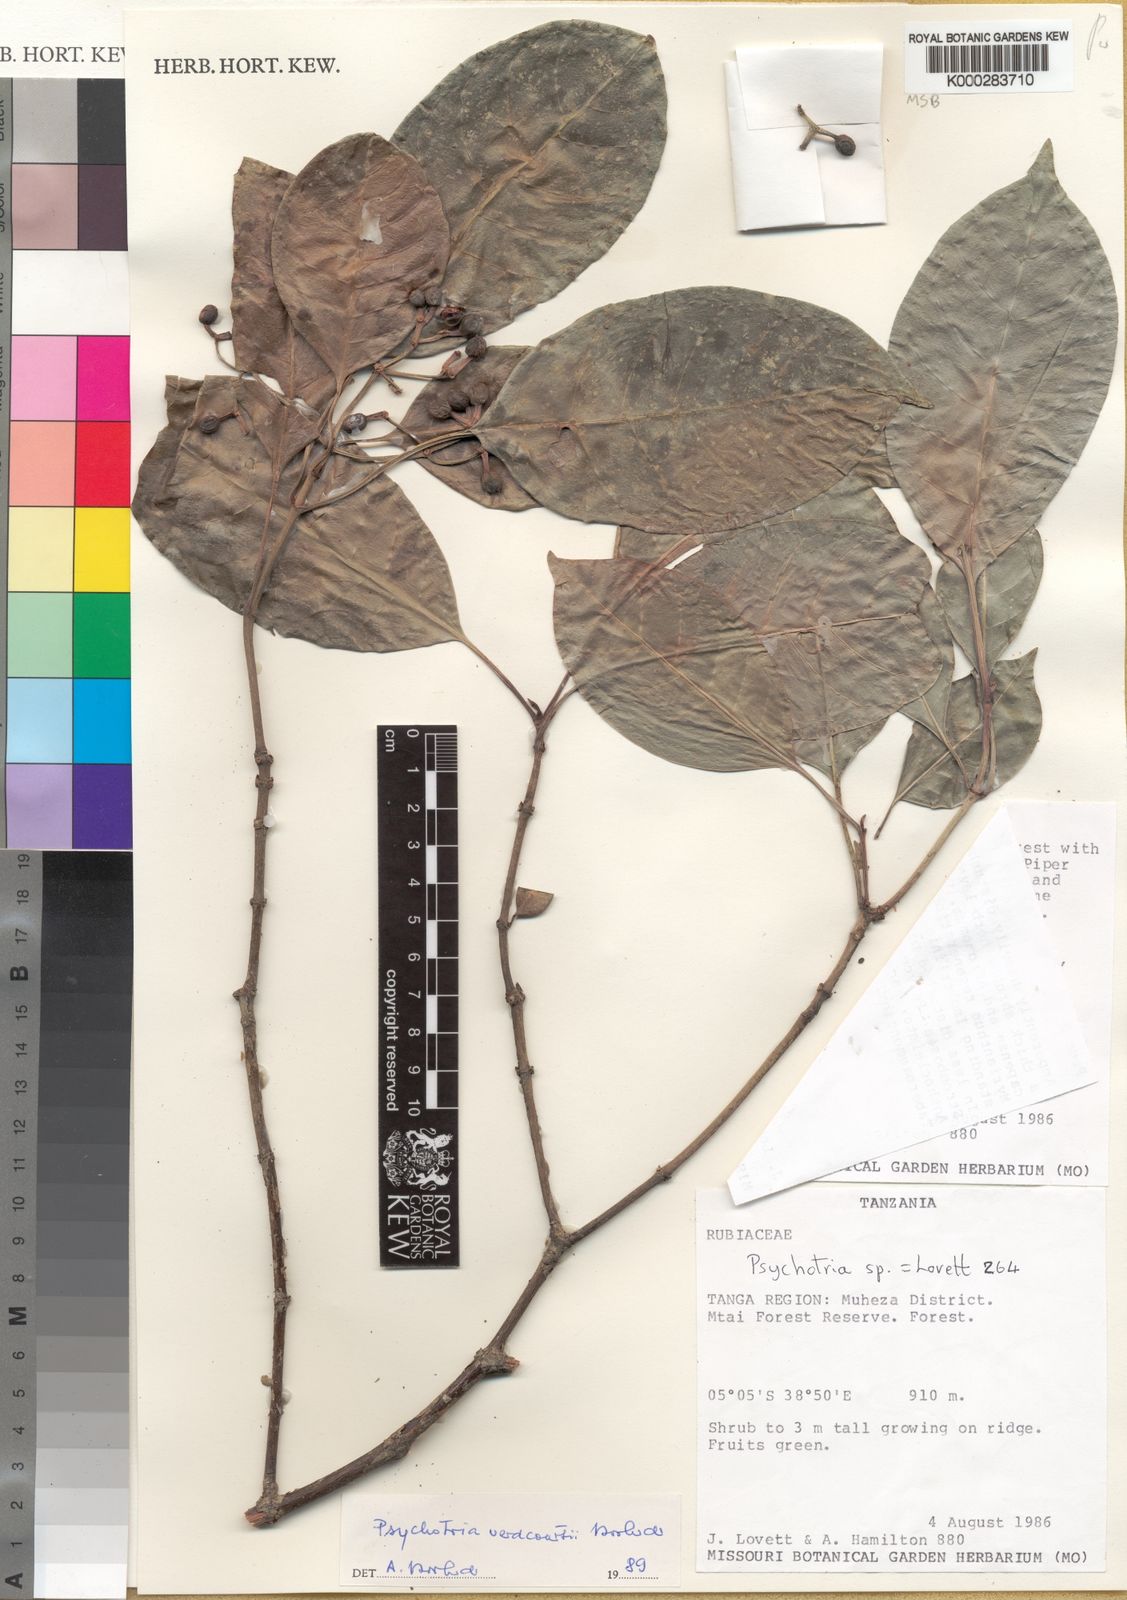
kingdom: Plantae
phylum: Tracheophyta
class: Magnoliopsida
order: Gentianales
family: Rubiaceae
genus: Psychotria
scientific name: Psychotria verdcourtii
